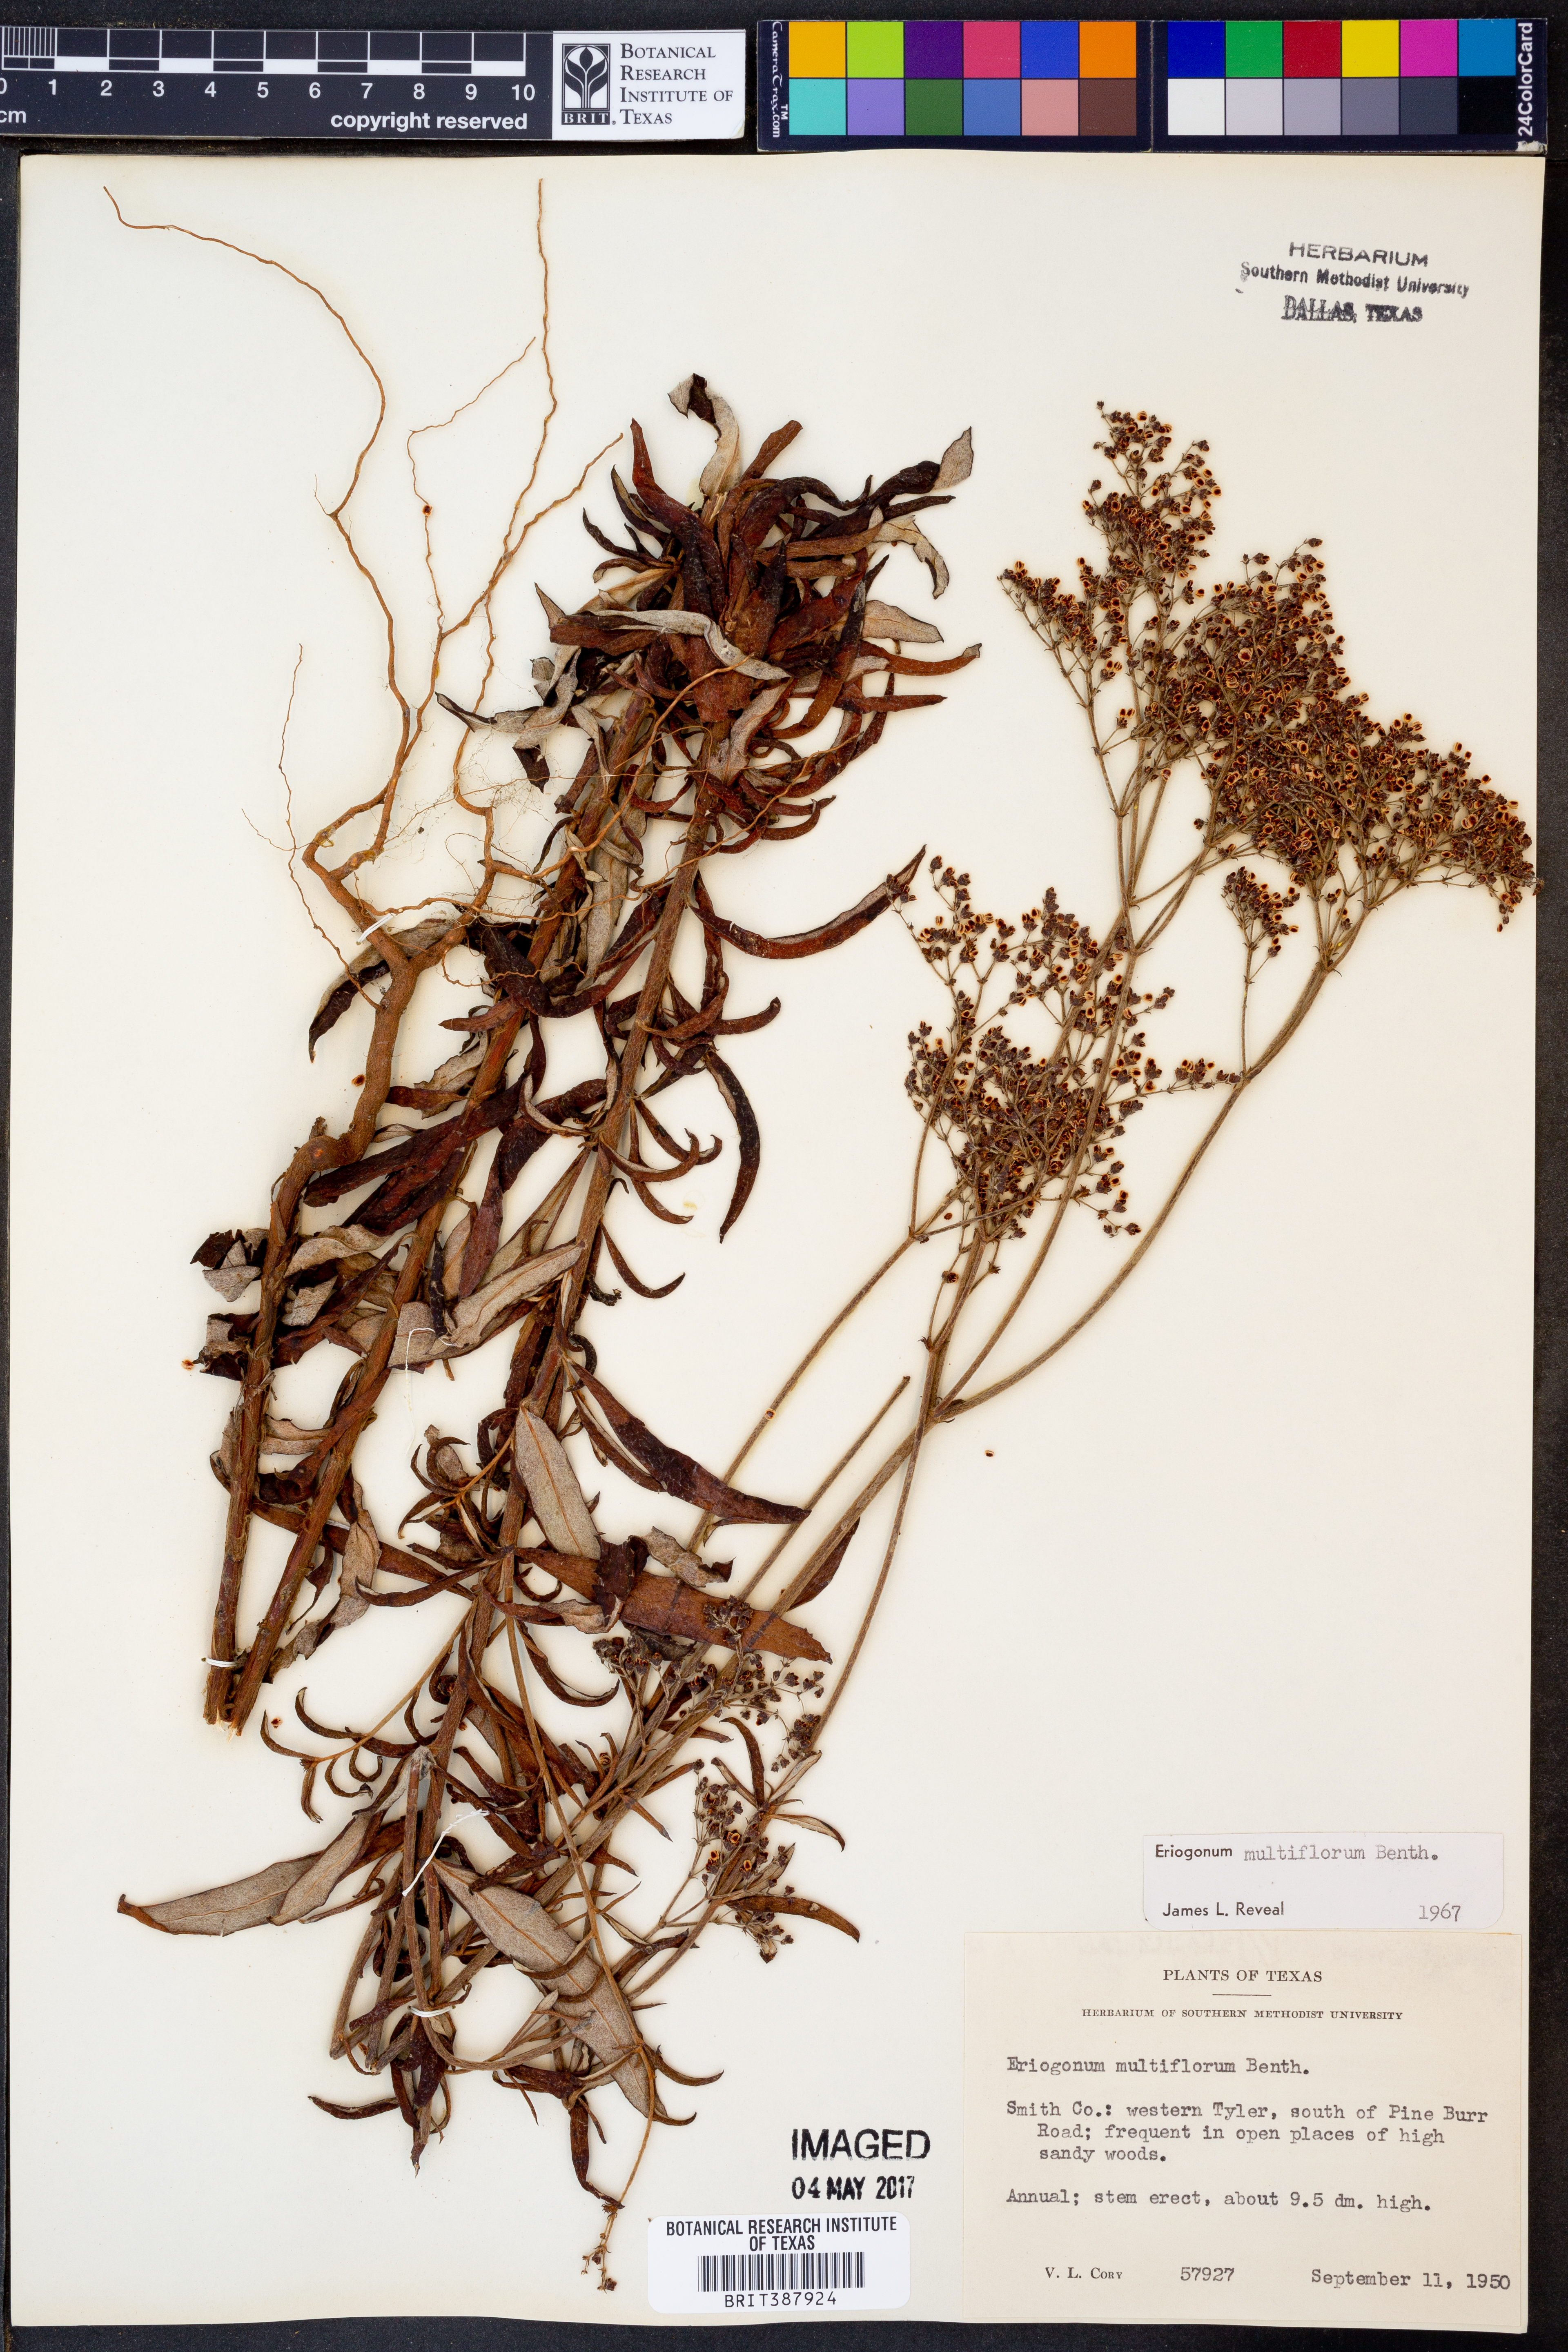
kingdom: Plantae
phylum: Tracheophyta
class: Magnoliopsida
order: Caryophyllales
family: Polygonaceae
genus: Eriogonum
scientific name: Eriogonum multiflorum
